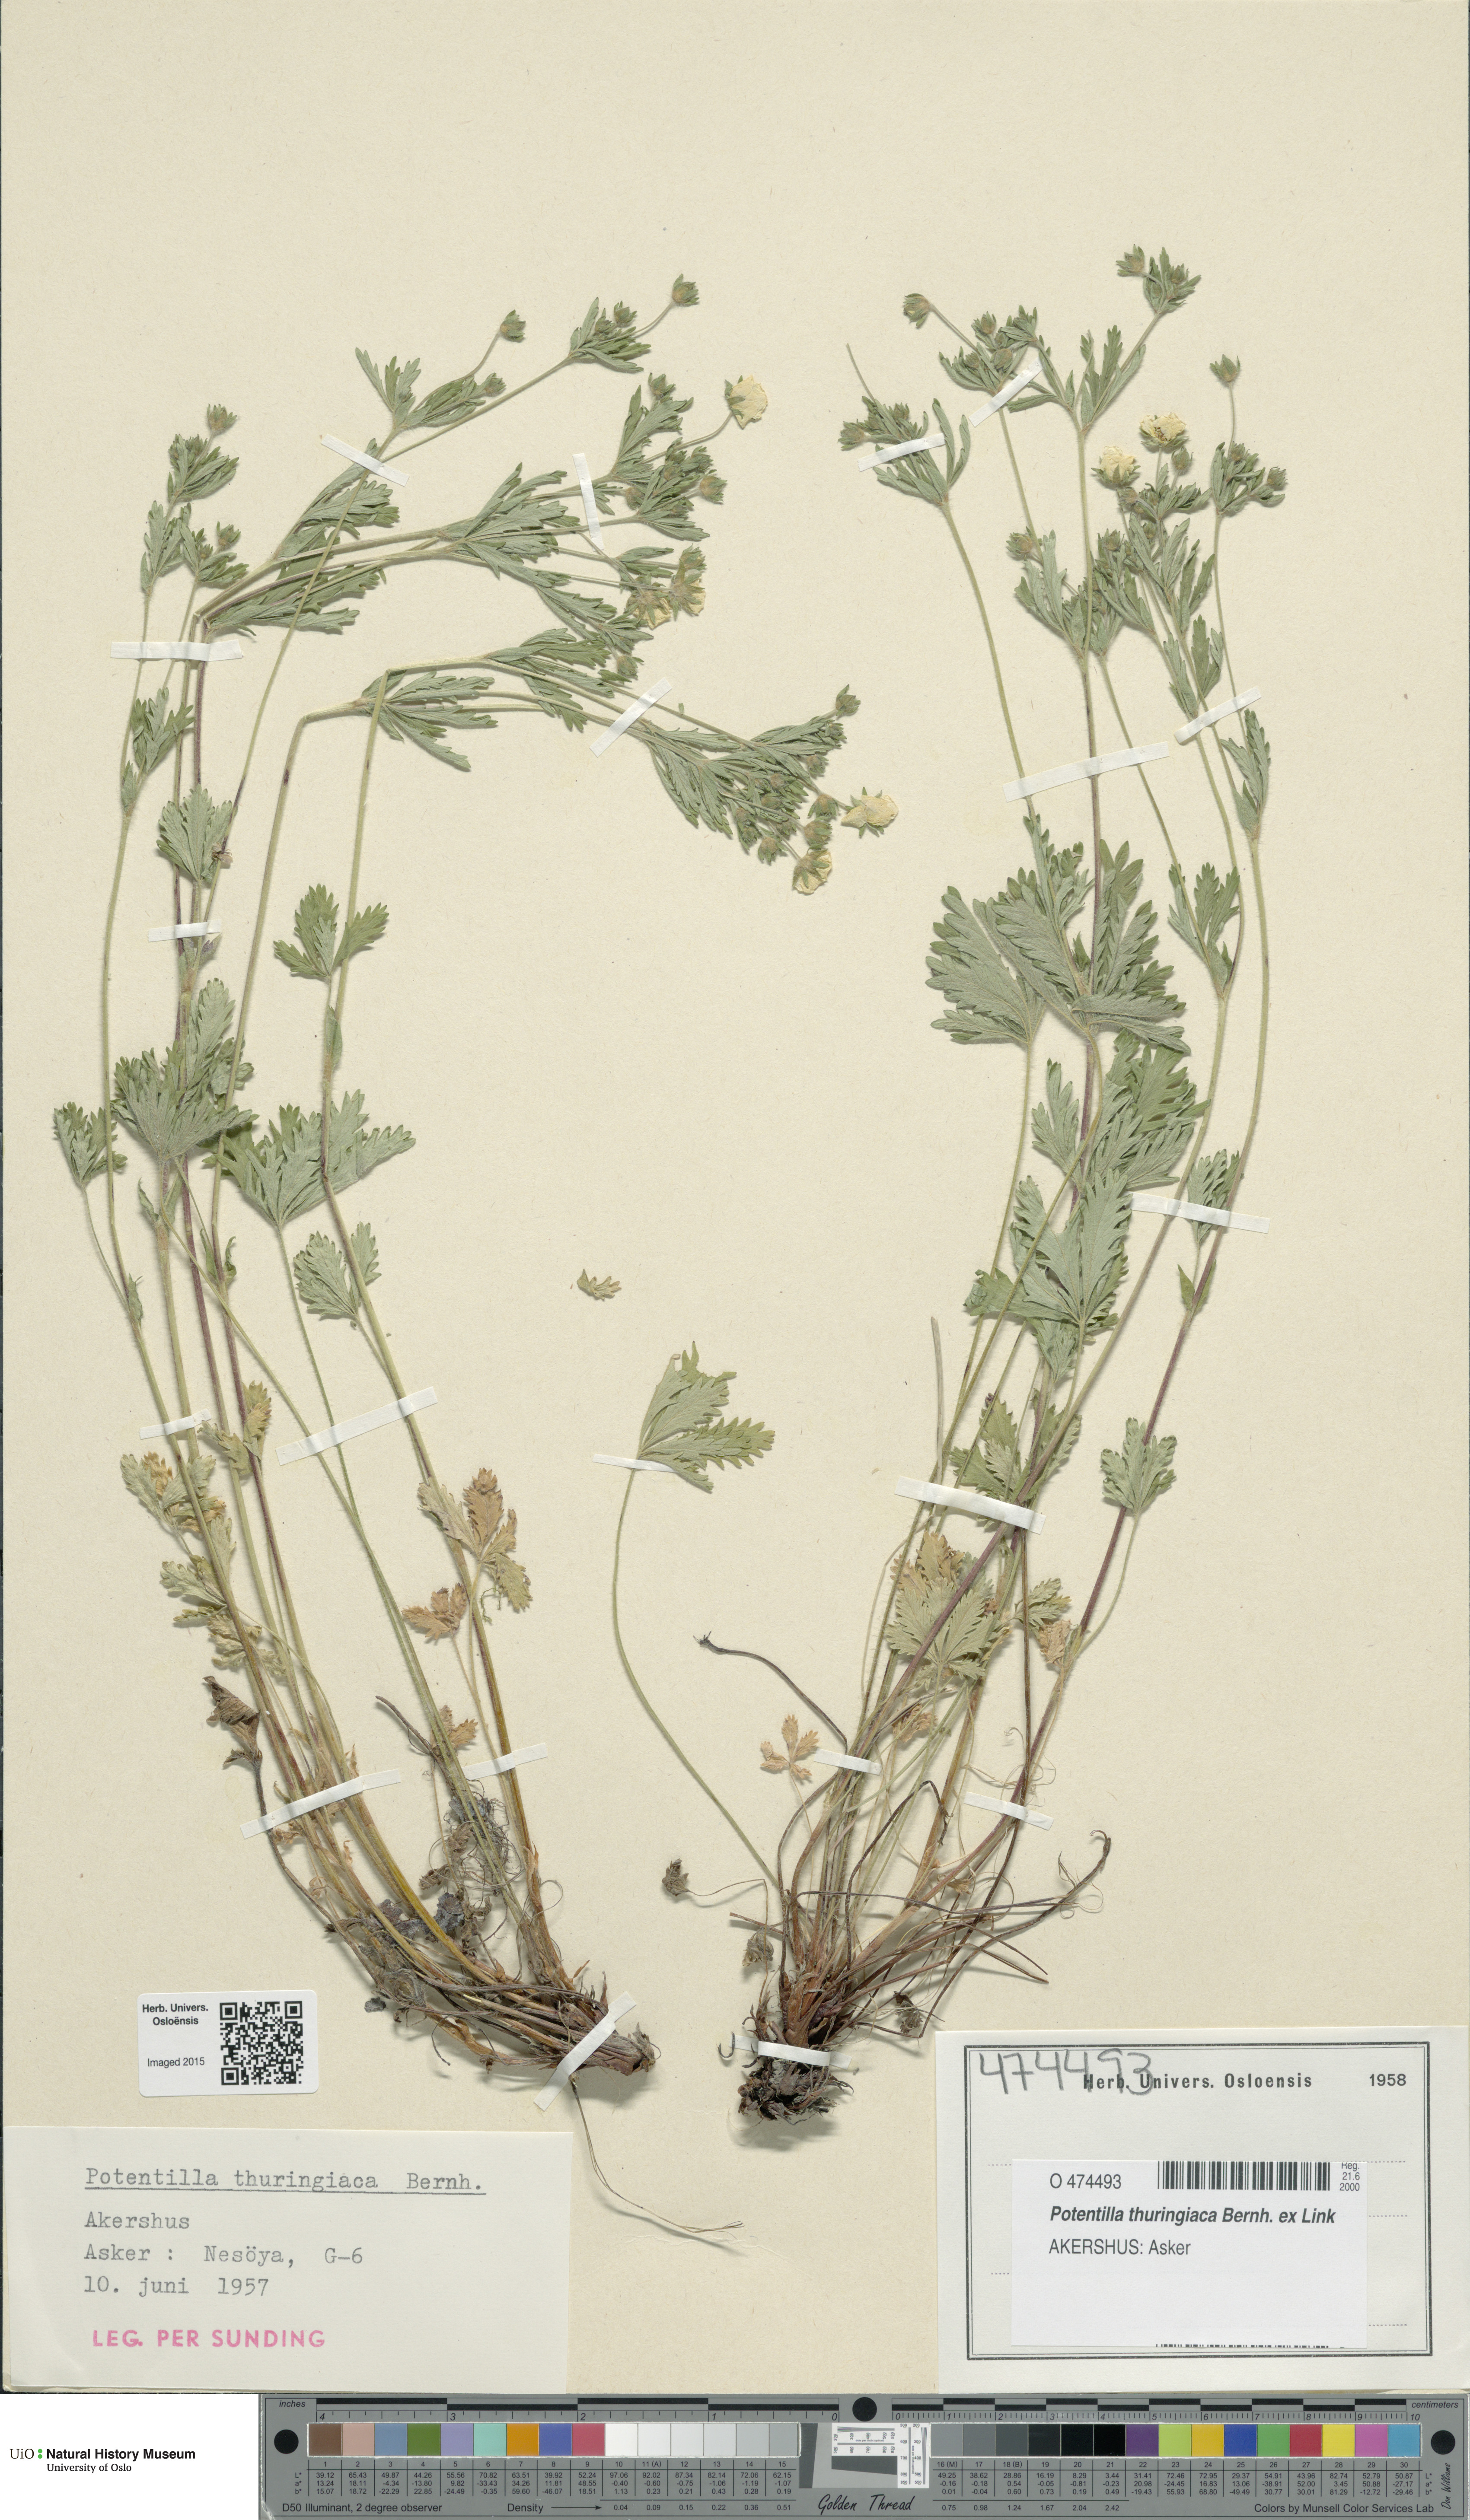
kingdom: Plantae
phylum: Tracheophyta
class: Magnoliopsida
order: Rosales
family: Rosaceae
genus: Potentilla
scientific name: Potentilla thuringiaca
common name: European cinquefoil
